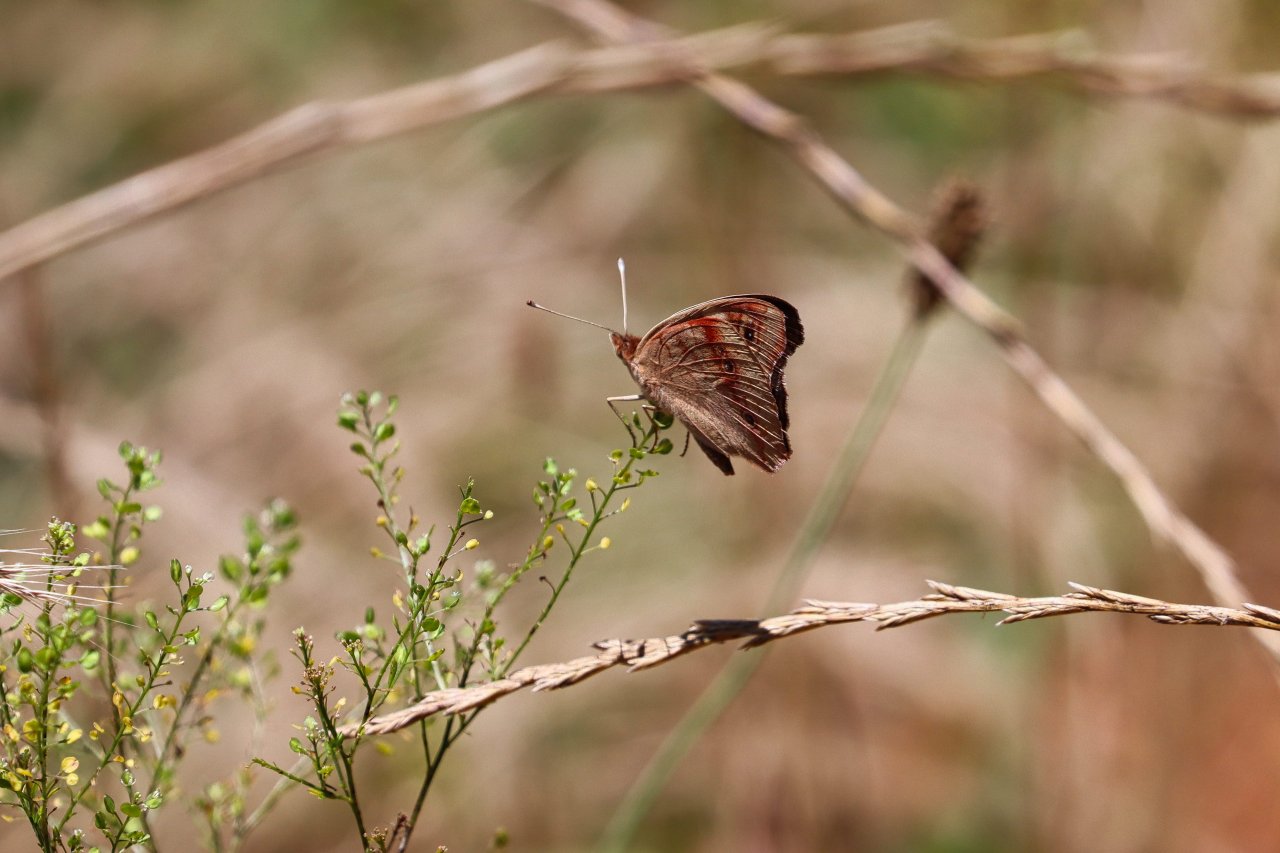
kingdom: Animalia
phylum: Arthropoda
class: Insecta
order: Lepidoptera
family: Nymphalidae
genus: Junonia
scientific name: Junonia coenia
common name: Common Buckeye
